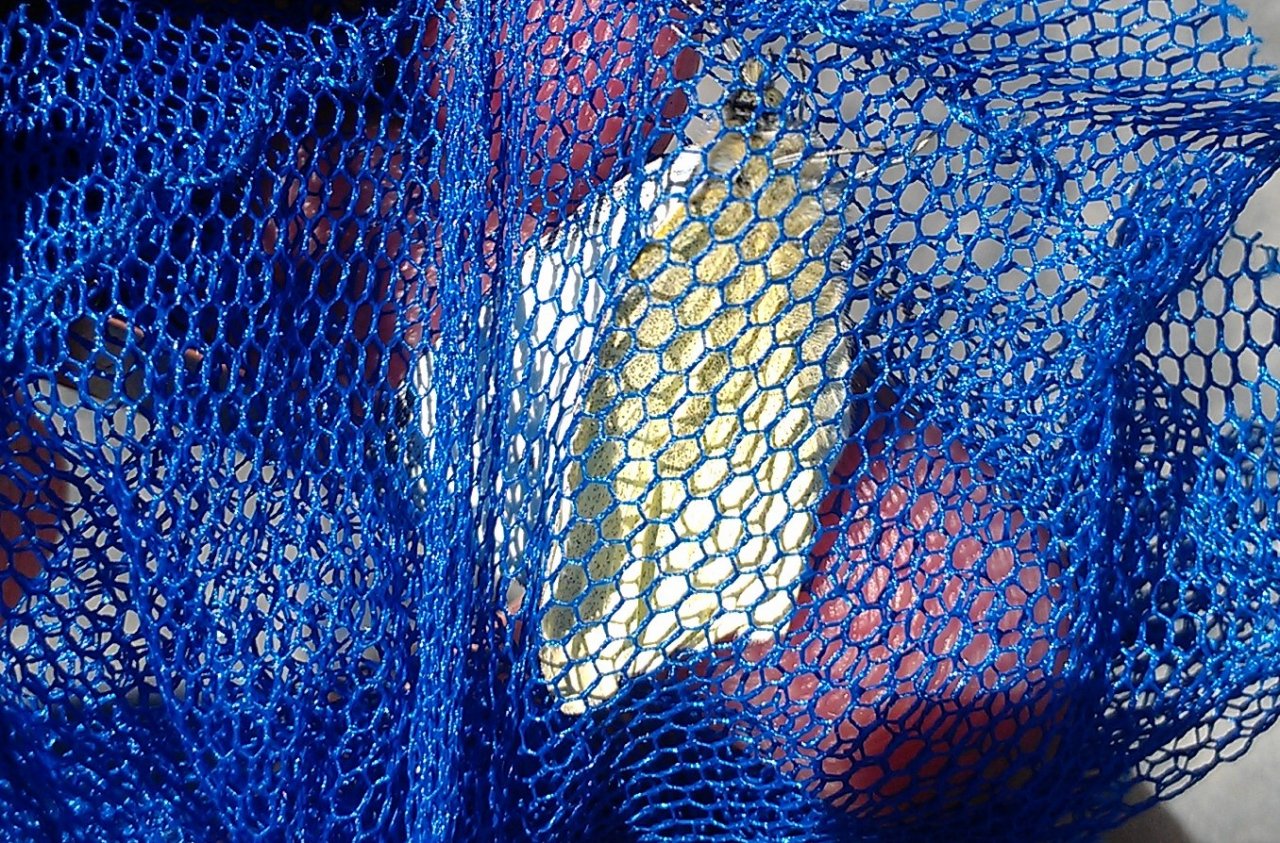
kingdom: Animalia
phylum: Arthropoda
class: Insecta
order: Lepidoptera
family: Pieridae
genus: Pieris
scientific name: Pieris rapae
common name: Cabbage White
